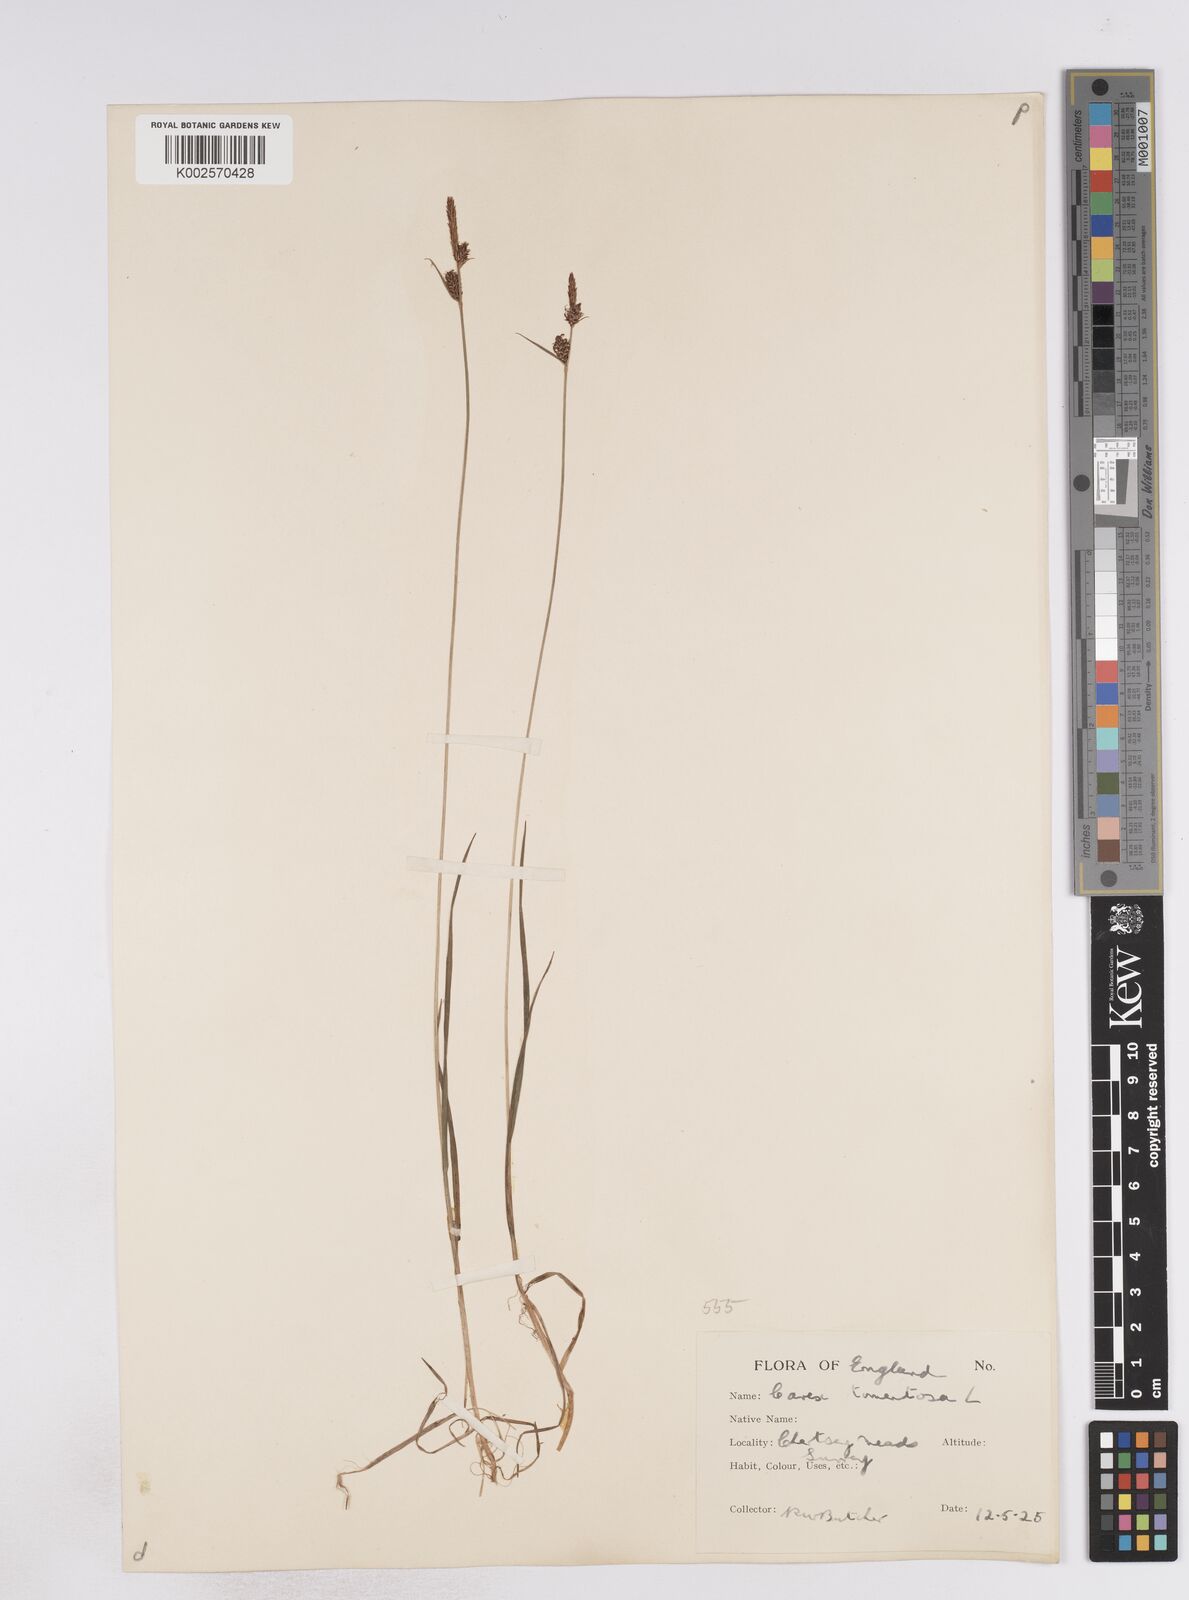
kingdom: Plantae
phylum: Tracheophyta
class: Liliopsida
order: Poales
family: Cyperaceae
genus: Carex
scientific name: Carex montana
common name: Soft-leaved sedge
